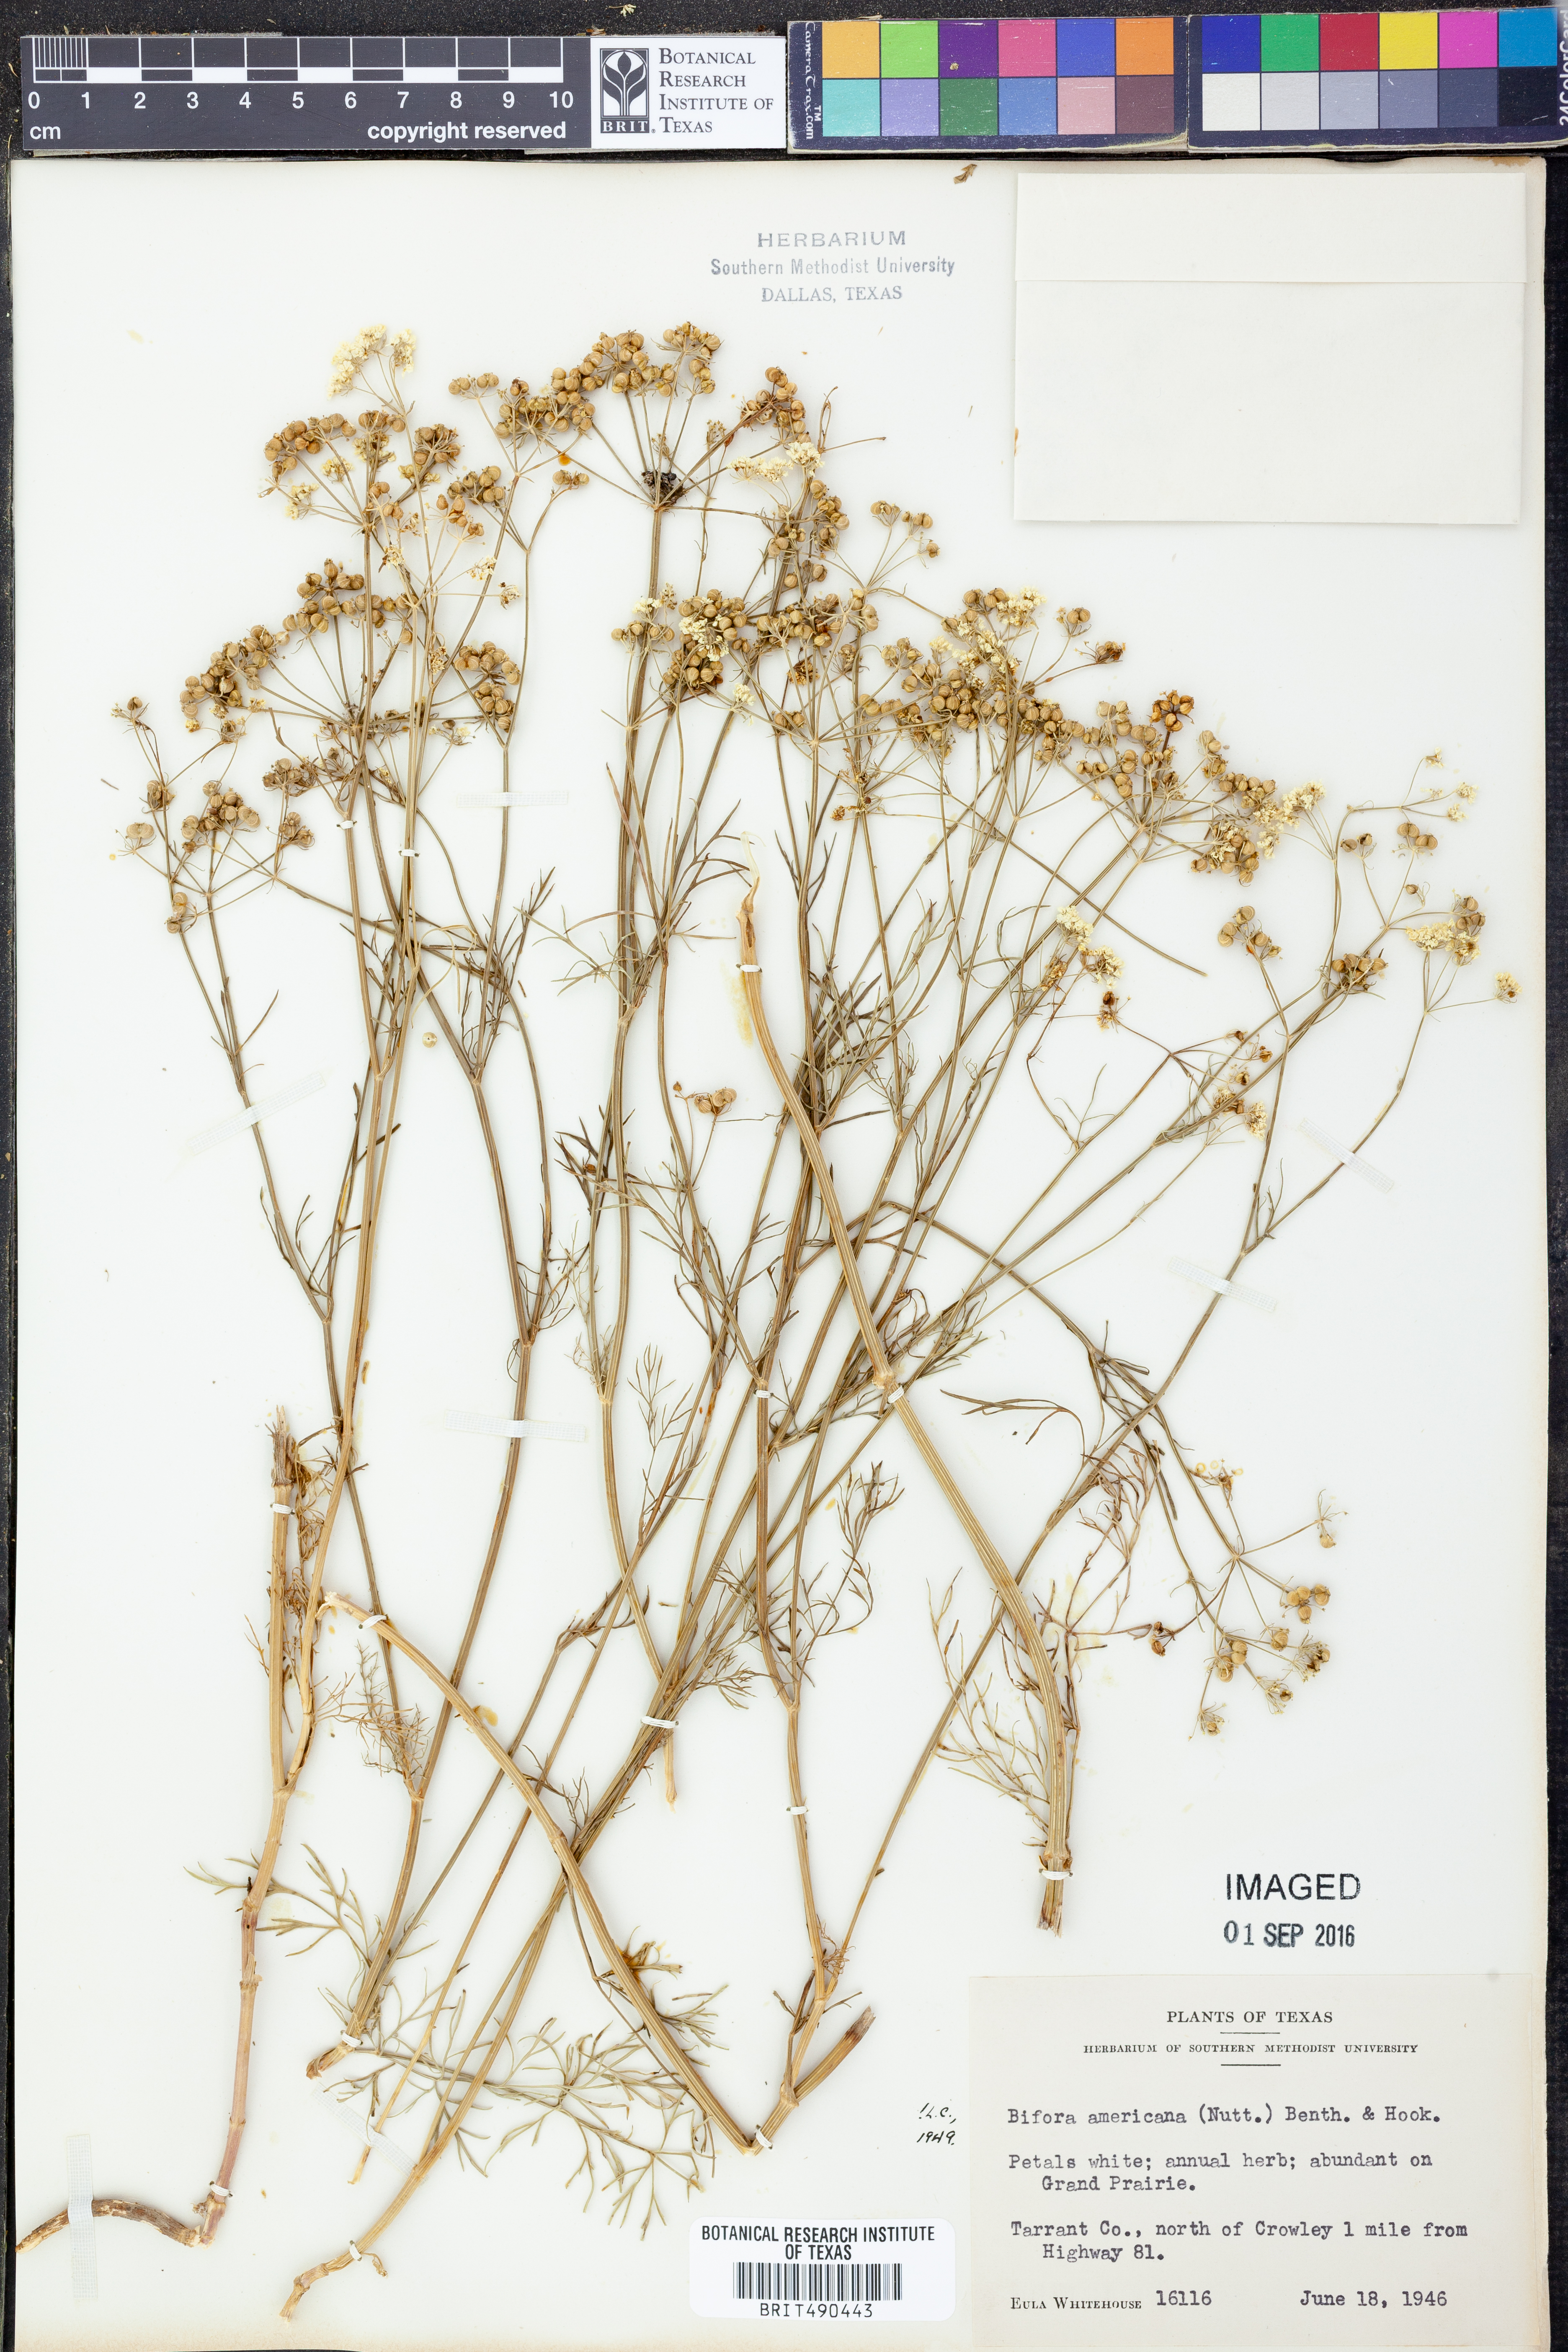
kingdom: Plantae
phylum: Tracheophyta
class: Magnoliopsida
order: Apiales
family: Apiaceae
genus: Atrema
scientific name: Atrema americanum
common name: Prairie-bishop
